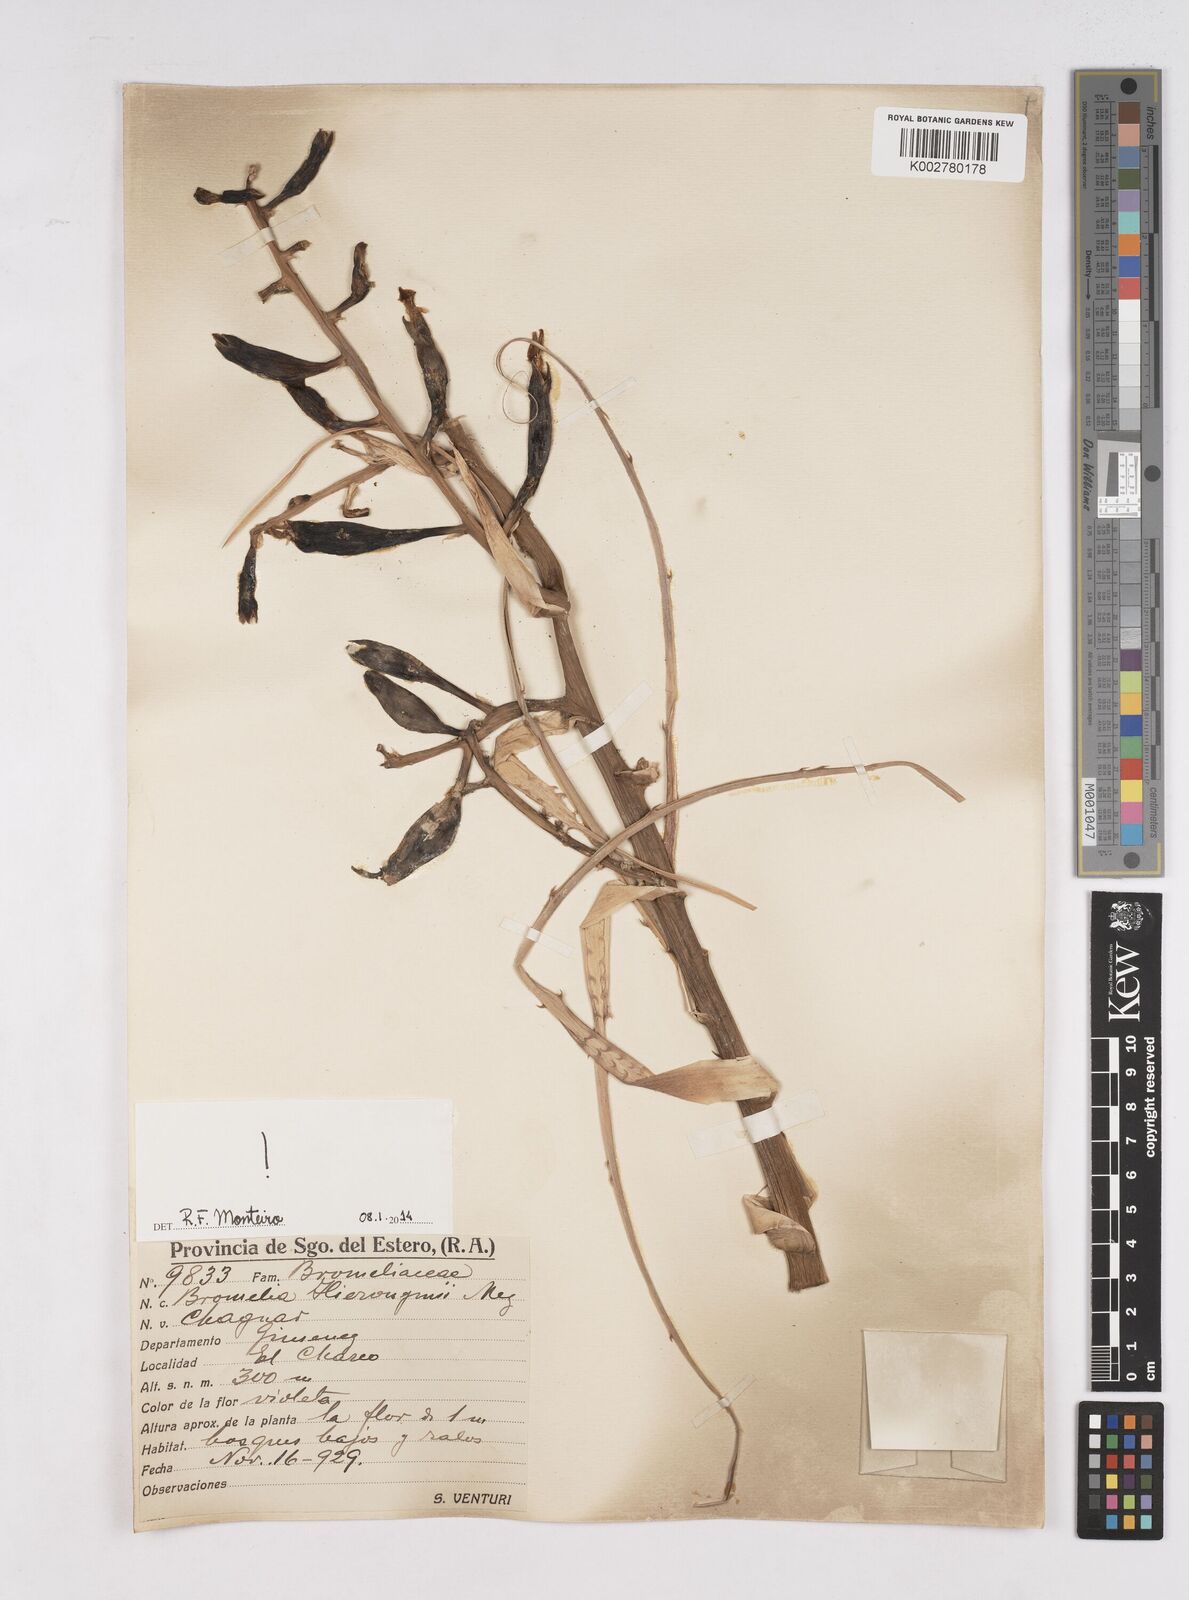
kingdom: Plantae
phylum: Tracheophyta
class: Liliopsida
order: Poales
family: Bromeliaceae
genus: Bromelia
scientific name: Bromelia hieronymi
